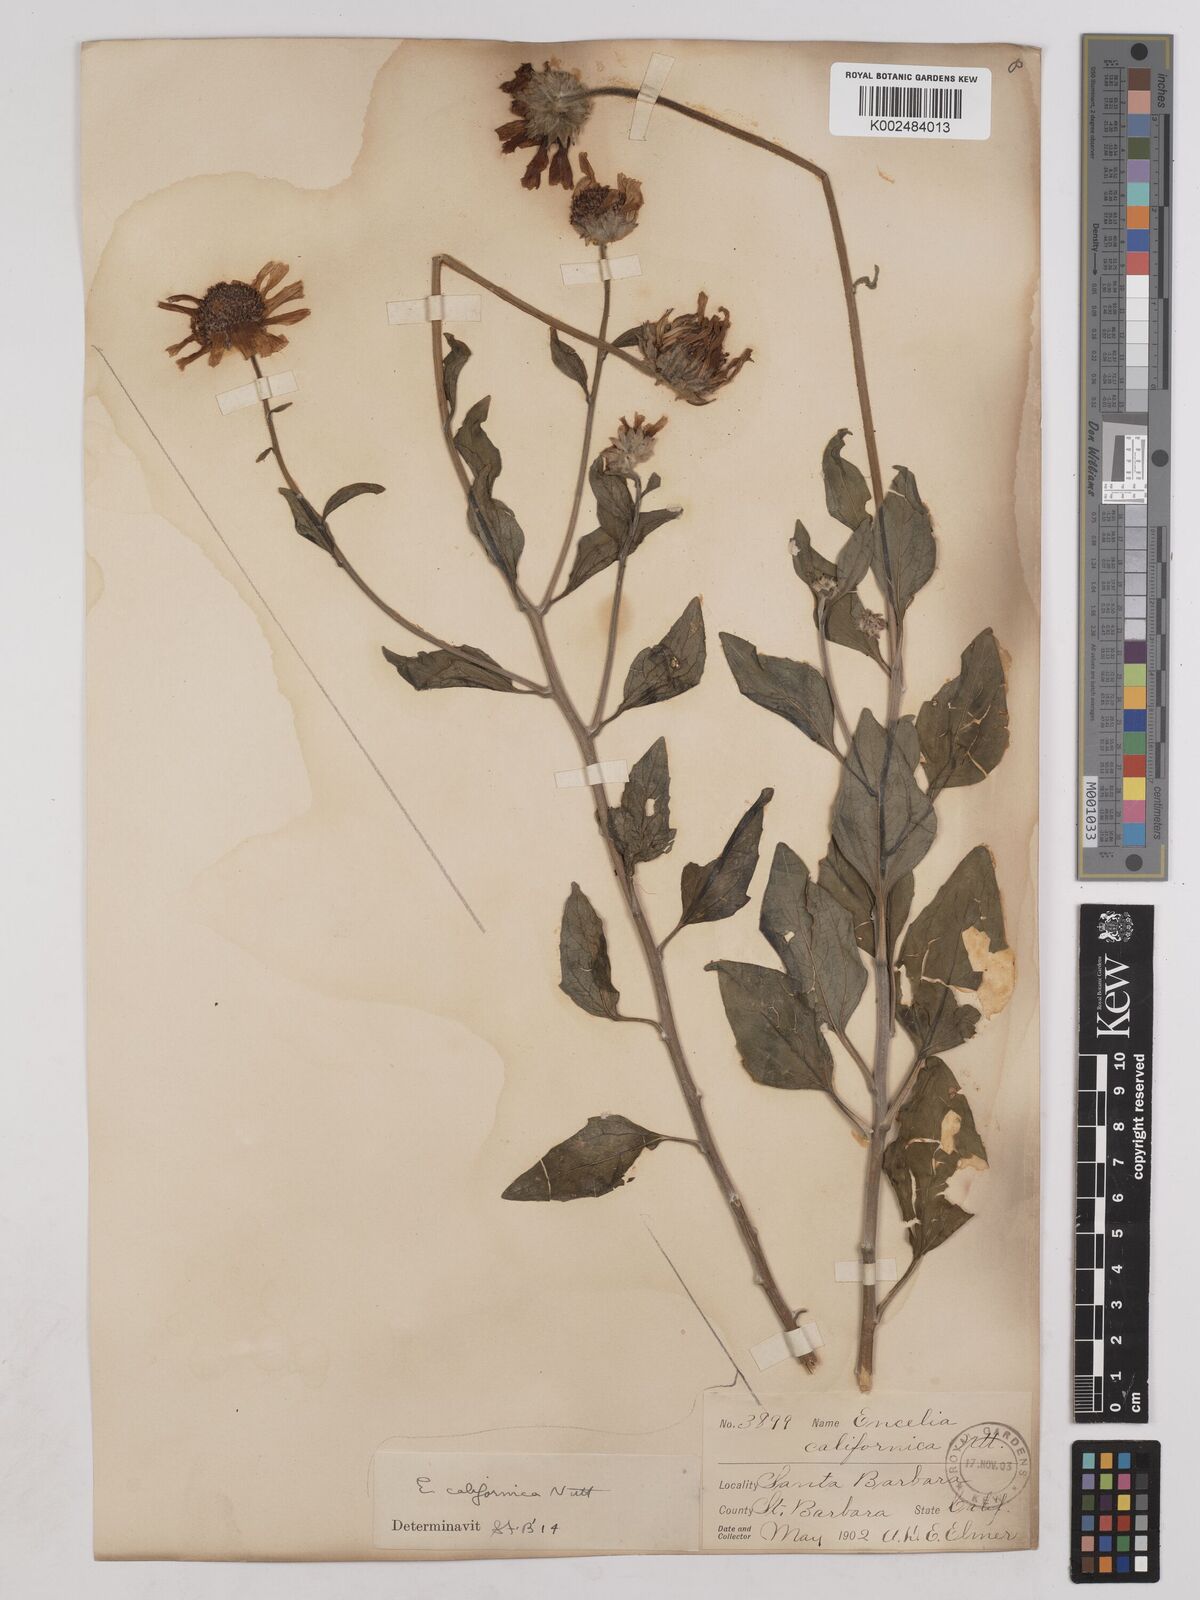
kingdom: Plantae
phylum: Tracheophyta
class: Magnoliopsida
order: Asterales
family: Asteraceae
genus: Encelia
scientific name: Encelia californica
